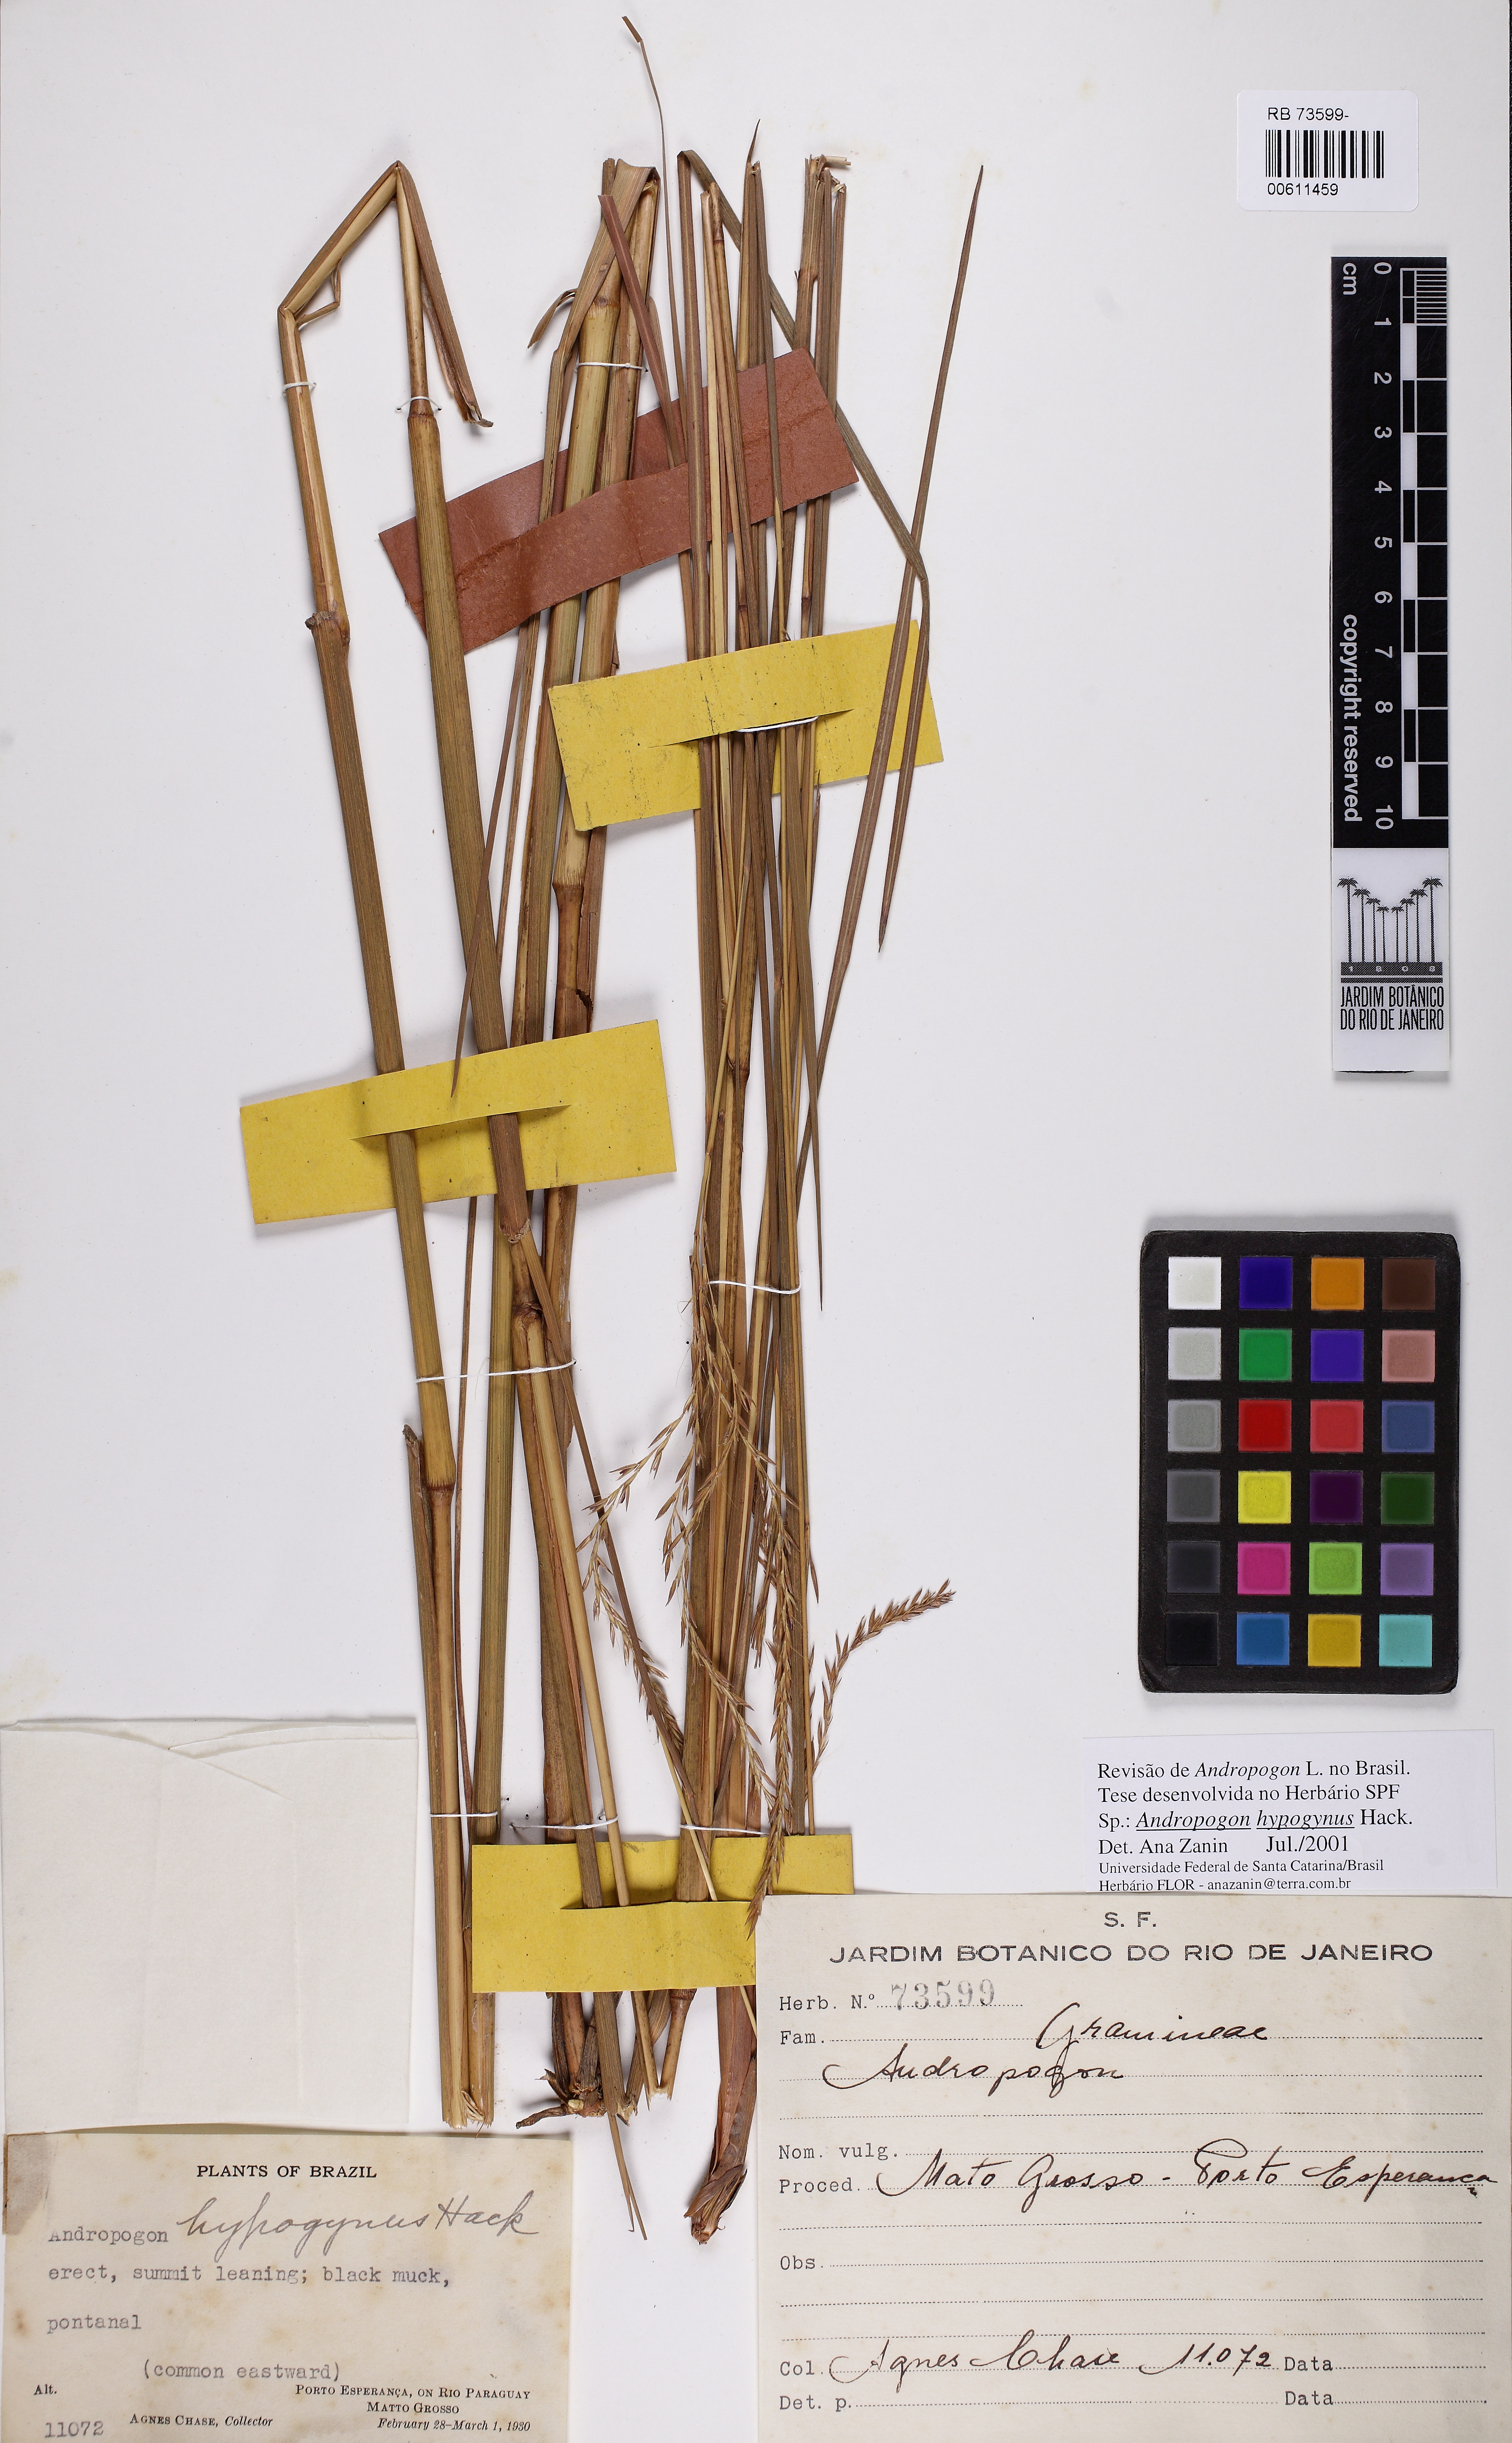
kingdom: Plantae
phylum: Tracheophyta
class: Liliopsida
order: Poales
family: Poaceae
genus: Andropogon
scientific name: Andropogon hypogynus
